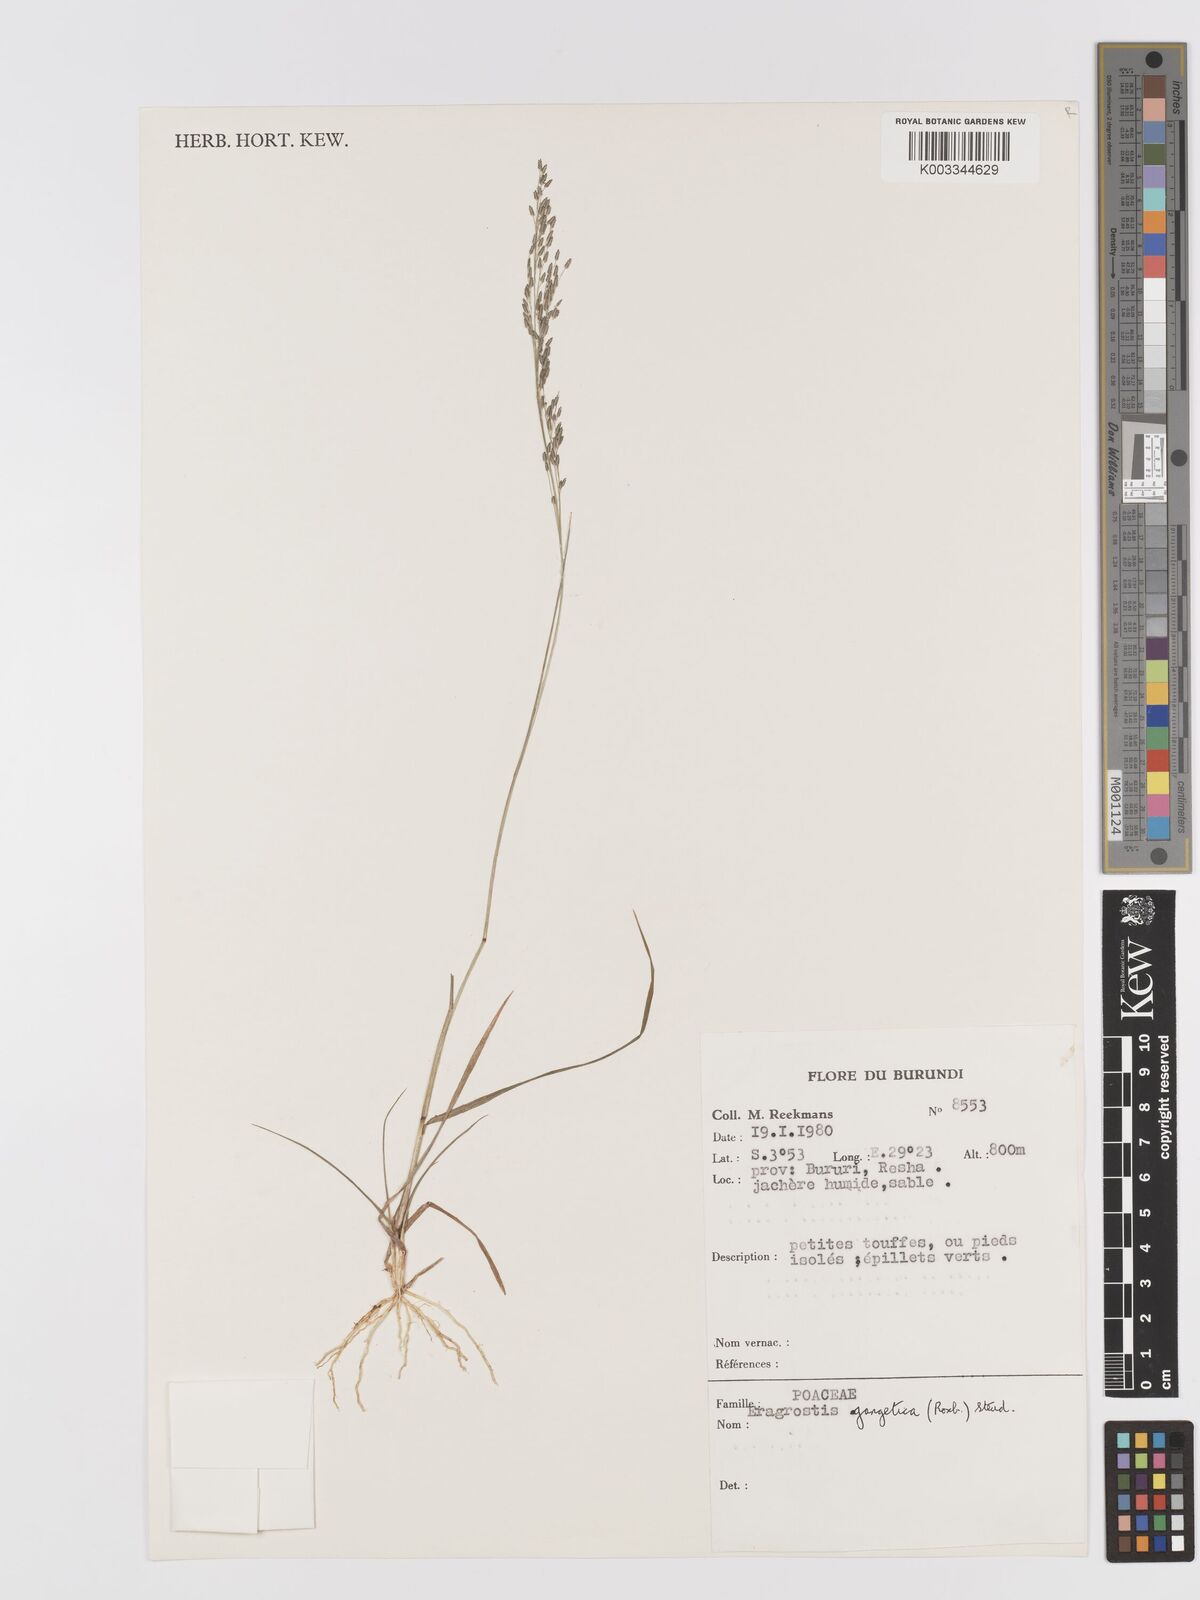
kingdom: Plantae
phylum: Tracheophyta
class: Liliopsida
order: Poales
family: Poaceae
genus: Eragrostis
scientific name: Eragrostis gangetica
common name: Slimflower lovegrass
